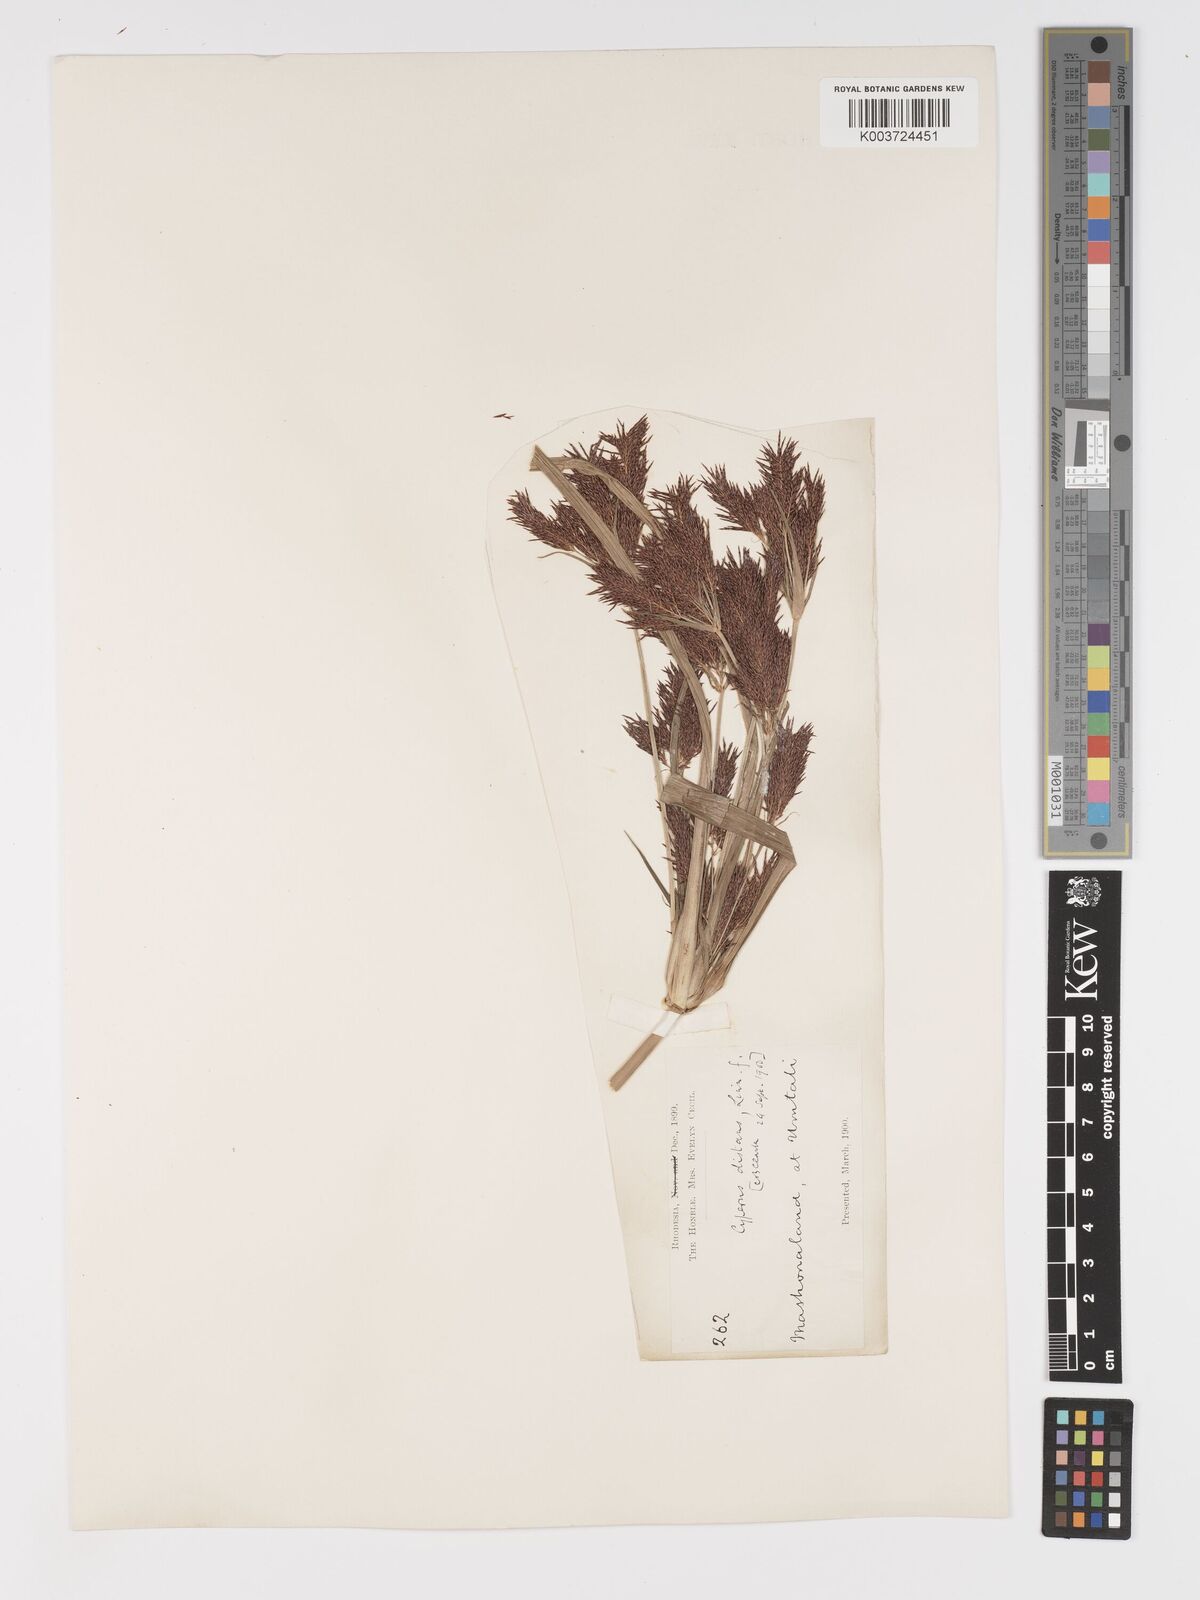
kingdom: Plantae
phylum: Tracheophyta
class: Liliopsida
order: Poales
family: Cyperaceae
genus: Cyperus
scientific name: Cyperus
